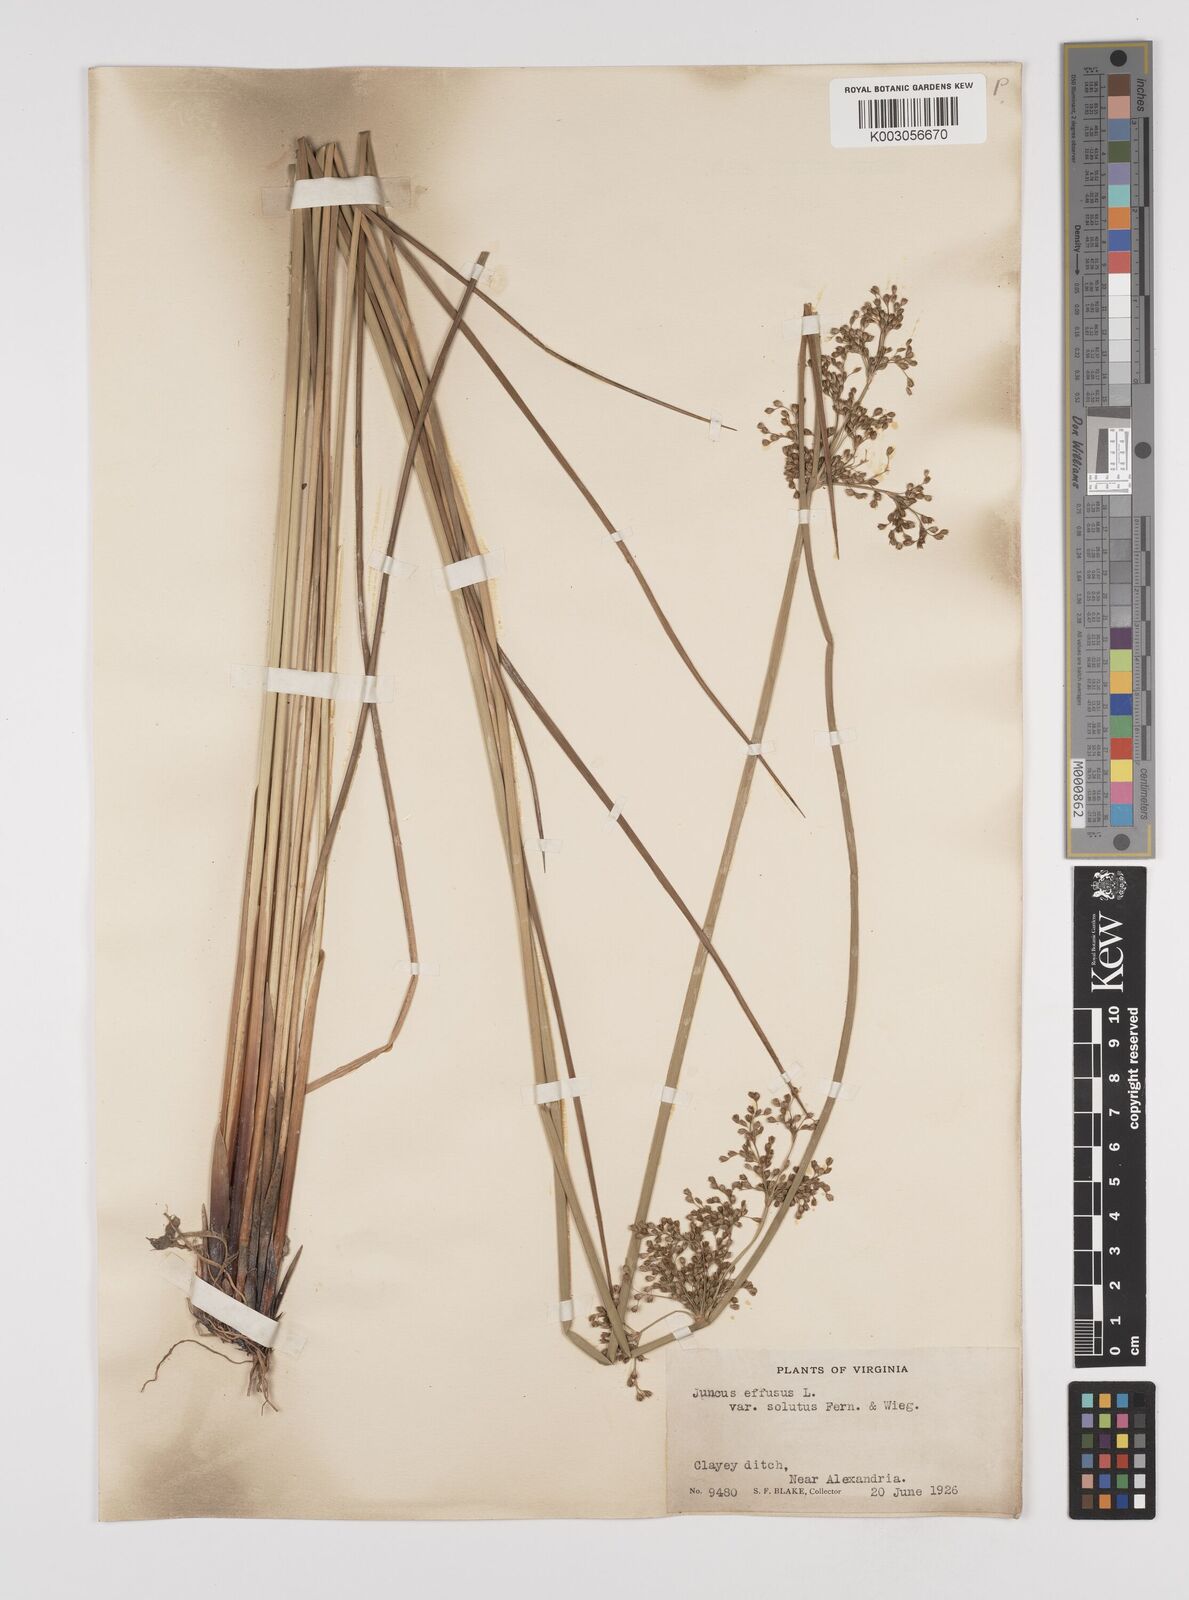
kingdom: Plantae
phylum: Tracheophyta
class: Liliopsida
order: Poales
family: Juncaceae
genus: Juncus
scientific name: Juncus effusus
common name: Soft rush
